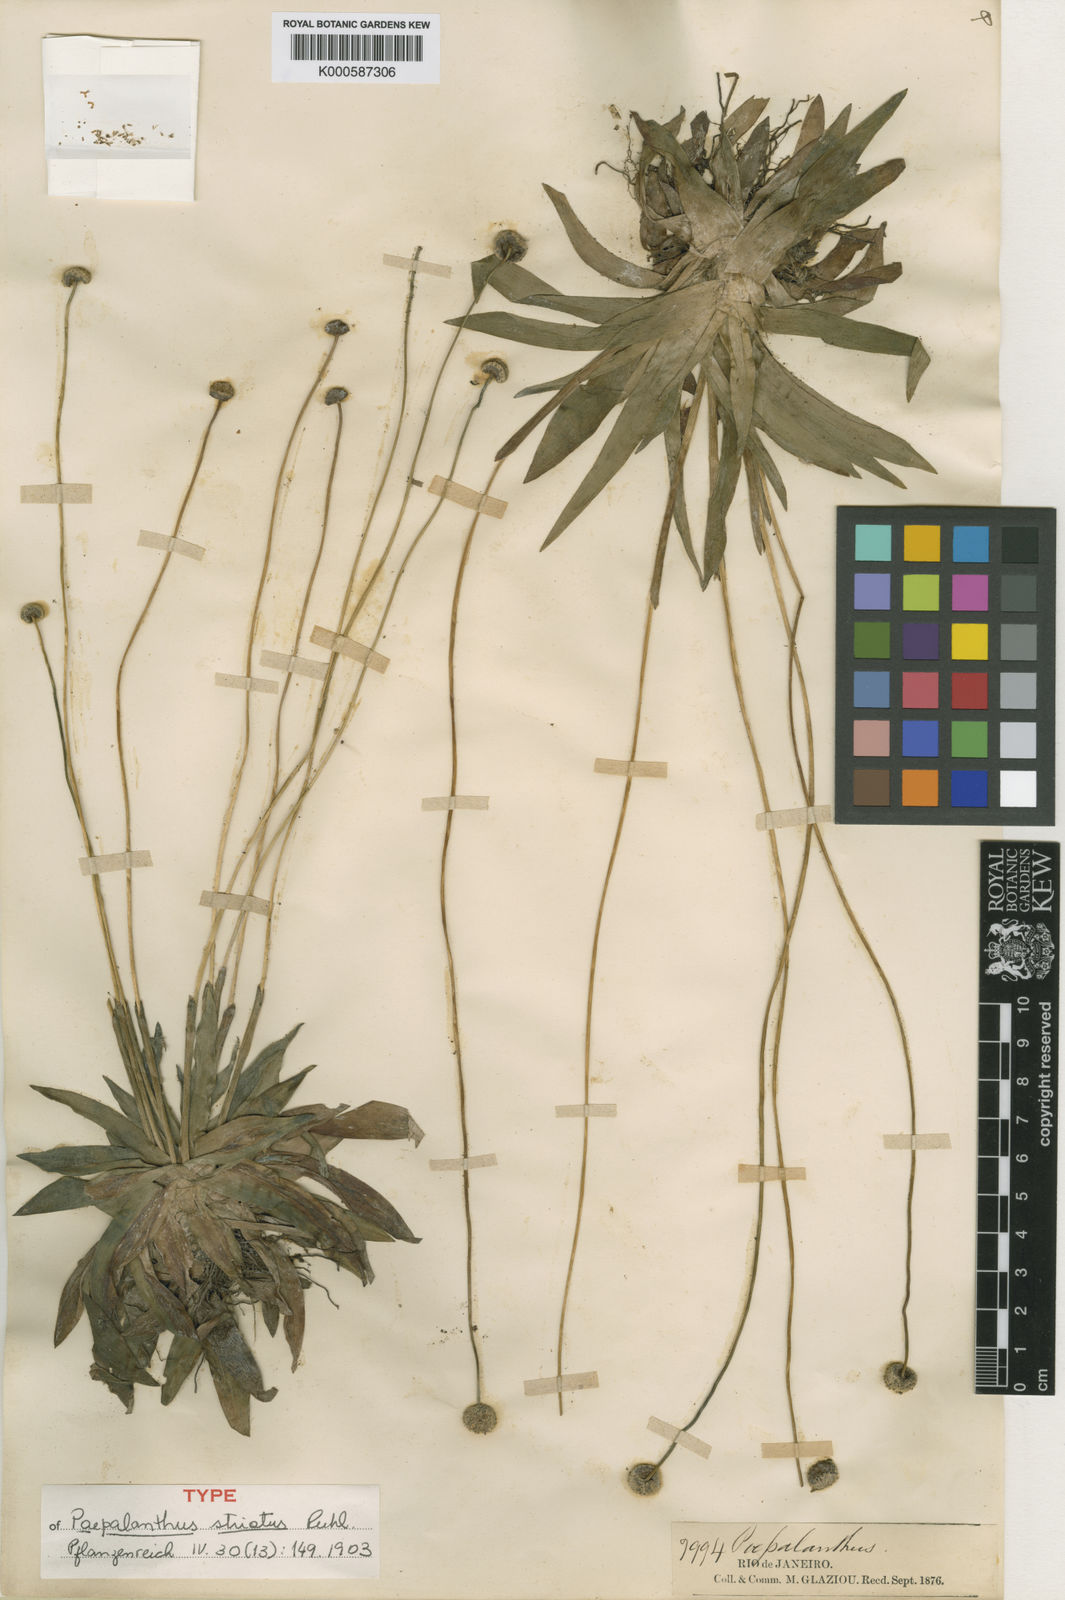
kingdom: Plantae
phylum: Tracheophyta
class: Liliopsida
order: Poales
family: Eriocaulaceae
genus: Paepalanthus
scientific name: Paepalanthus striatus
